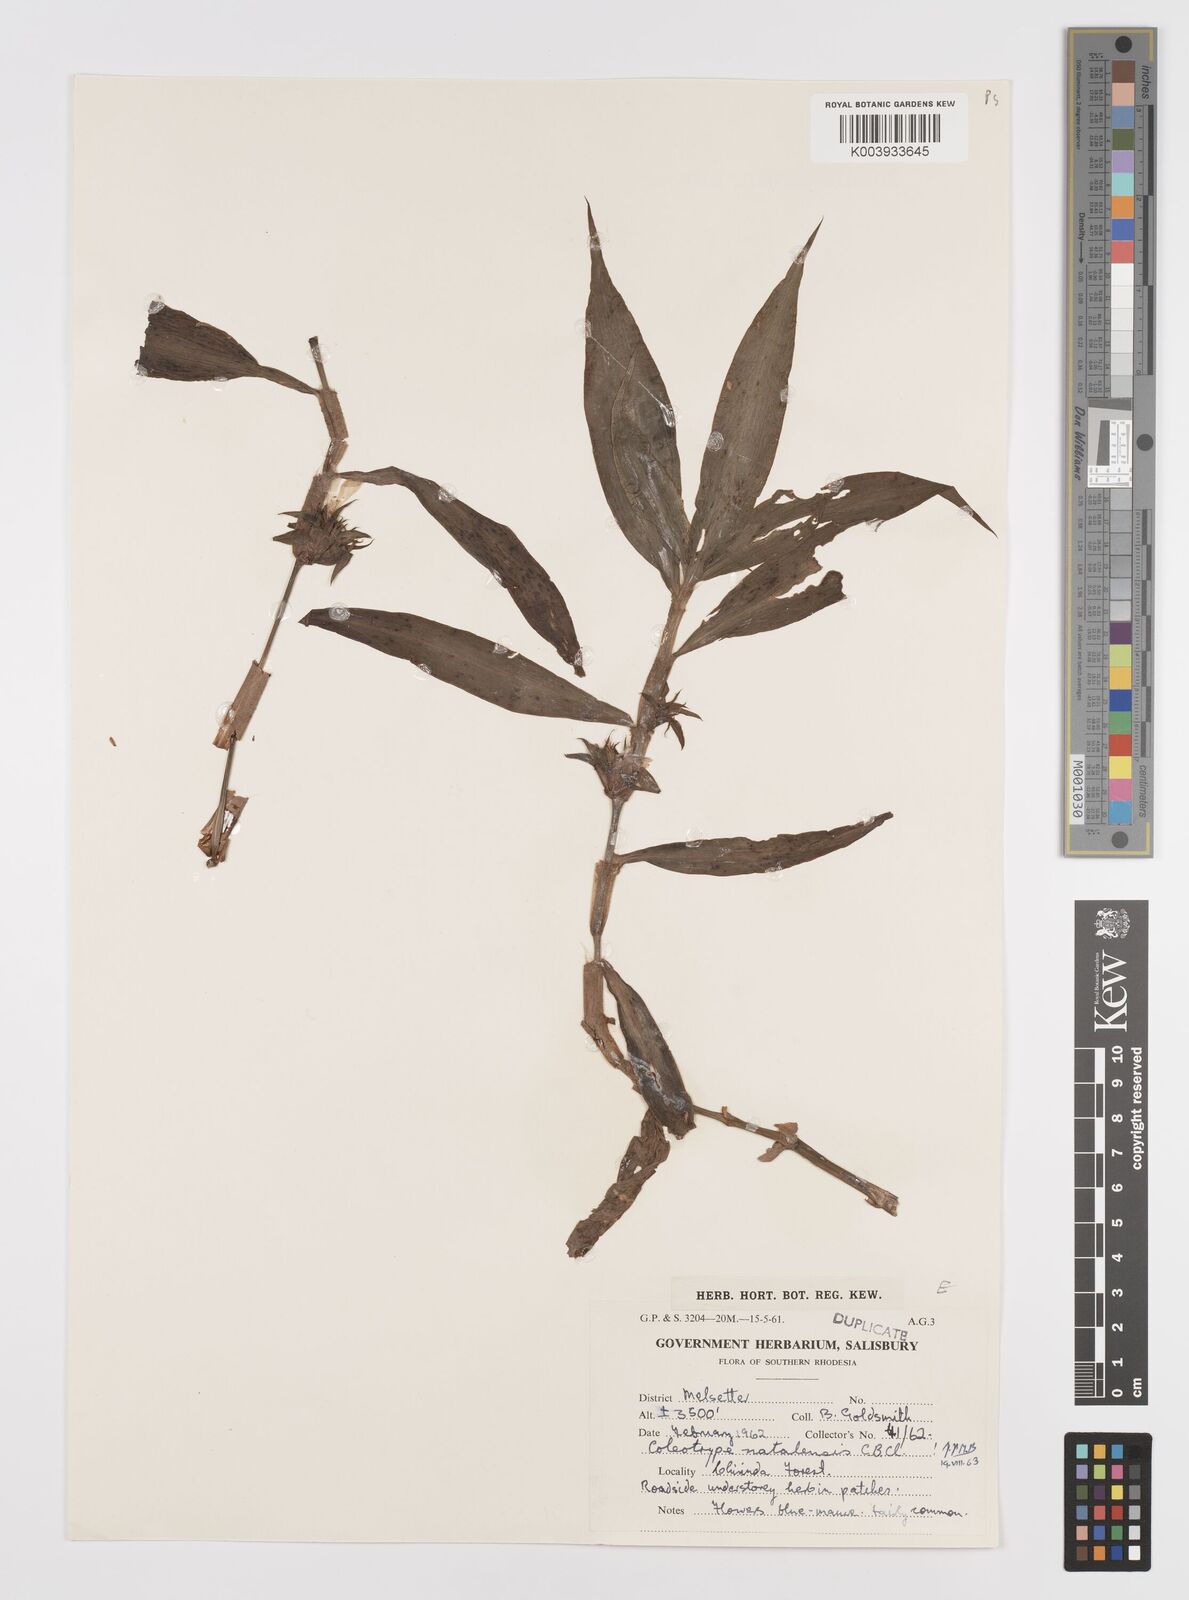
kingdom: Plantae
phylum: Tracheophyta
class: Liliopsida
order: Commelinales
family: Commelinaceae
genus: Coleotrype
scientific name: Coleotrype natalensis
